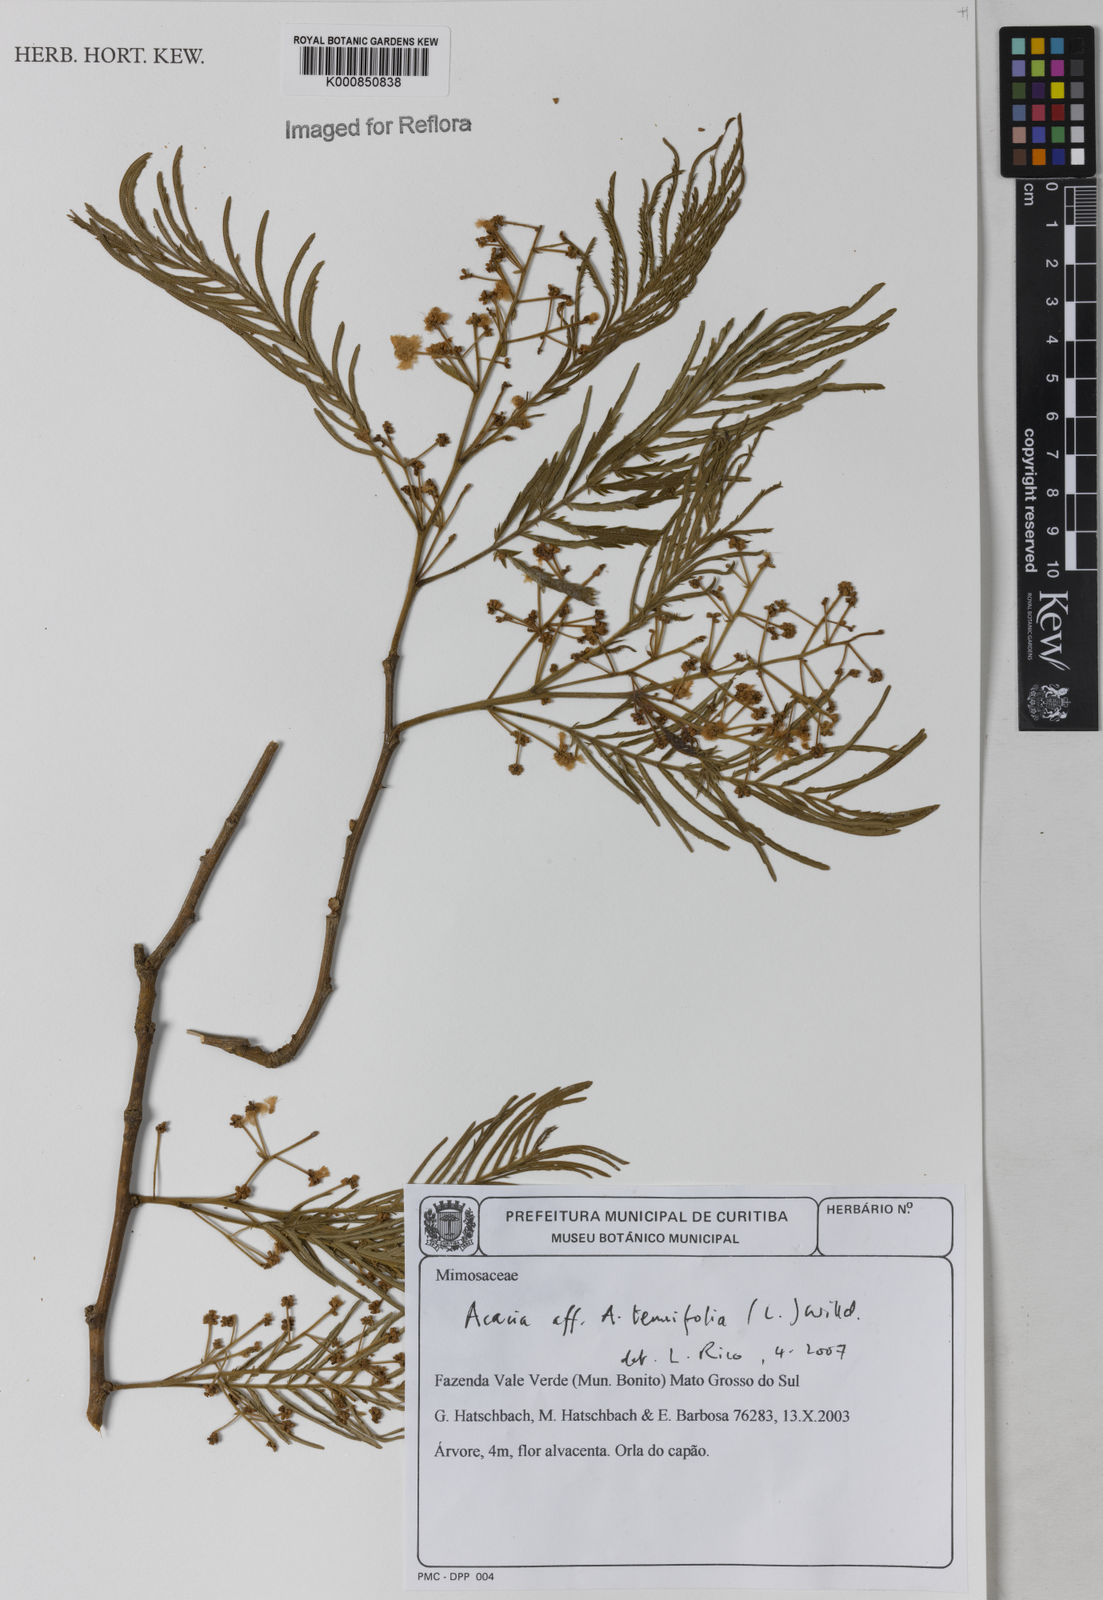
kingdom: Plantae
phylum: Tracheophyta
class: Magnoliopsida
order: Fabales
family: Fabaceae
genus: Senegalia
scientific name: Senegalia tenuifolia
